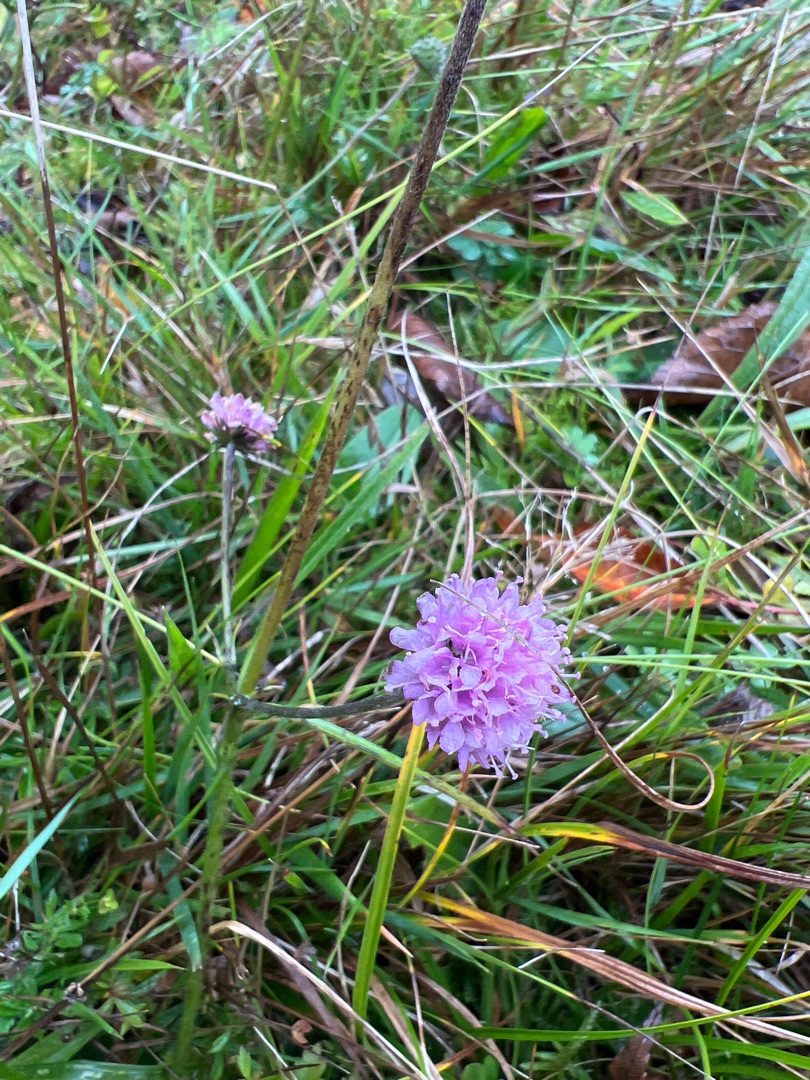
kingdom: Plantae
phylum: Tracheophyta
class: Magnoliopsida
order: Dipsacales
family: Caprifoliaceae
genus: Succisa
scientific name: Succisa pratensis
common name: Djævelsbid
